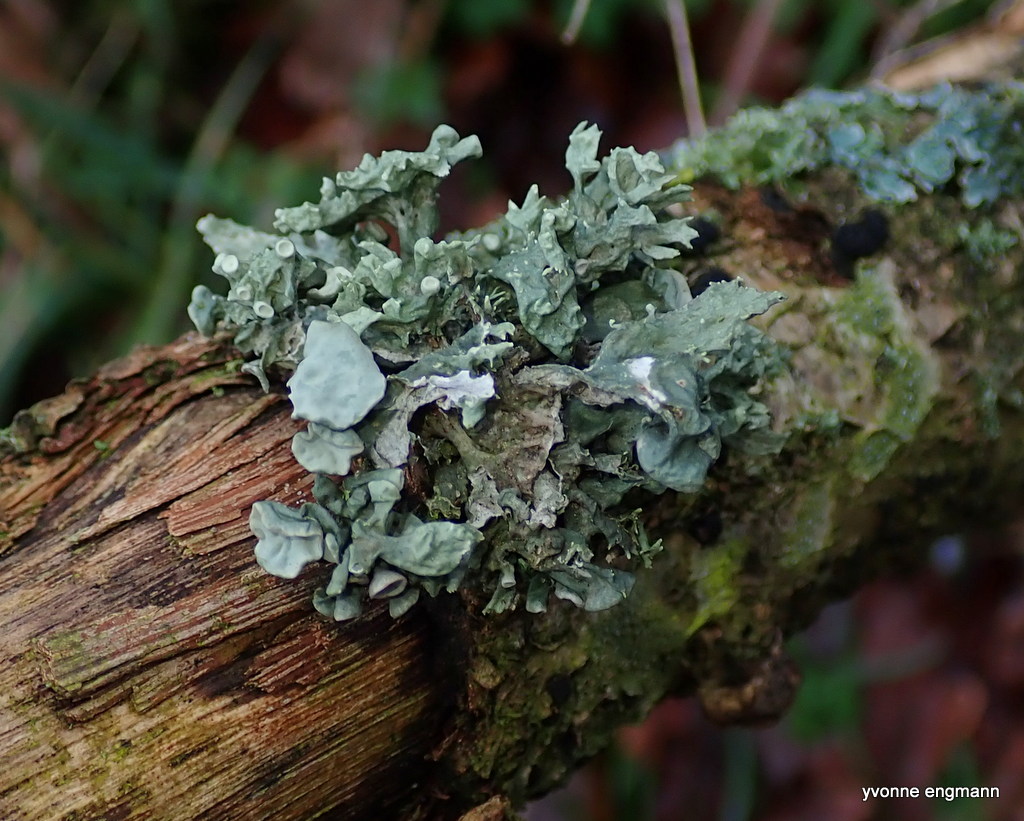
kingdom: Fungi
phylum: Ascomycota
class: Lecanoromycetes
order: Lecanorales
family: Ramalinaceae
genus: Ramalina
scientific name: Ramalina fastigiata
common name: tue-grenlav
